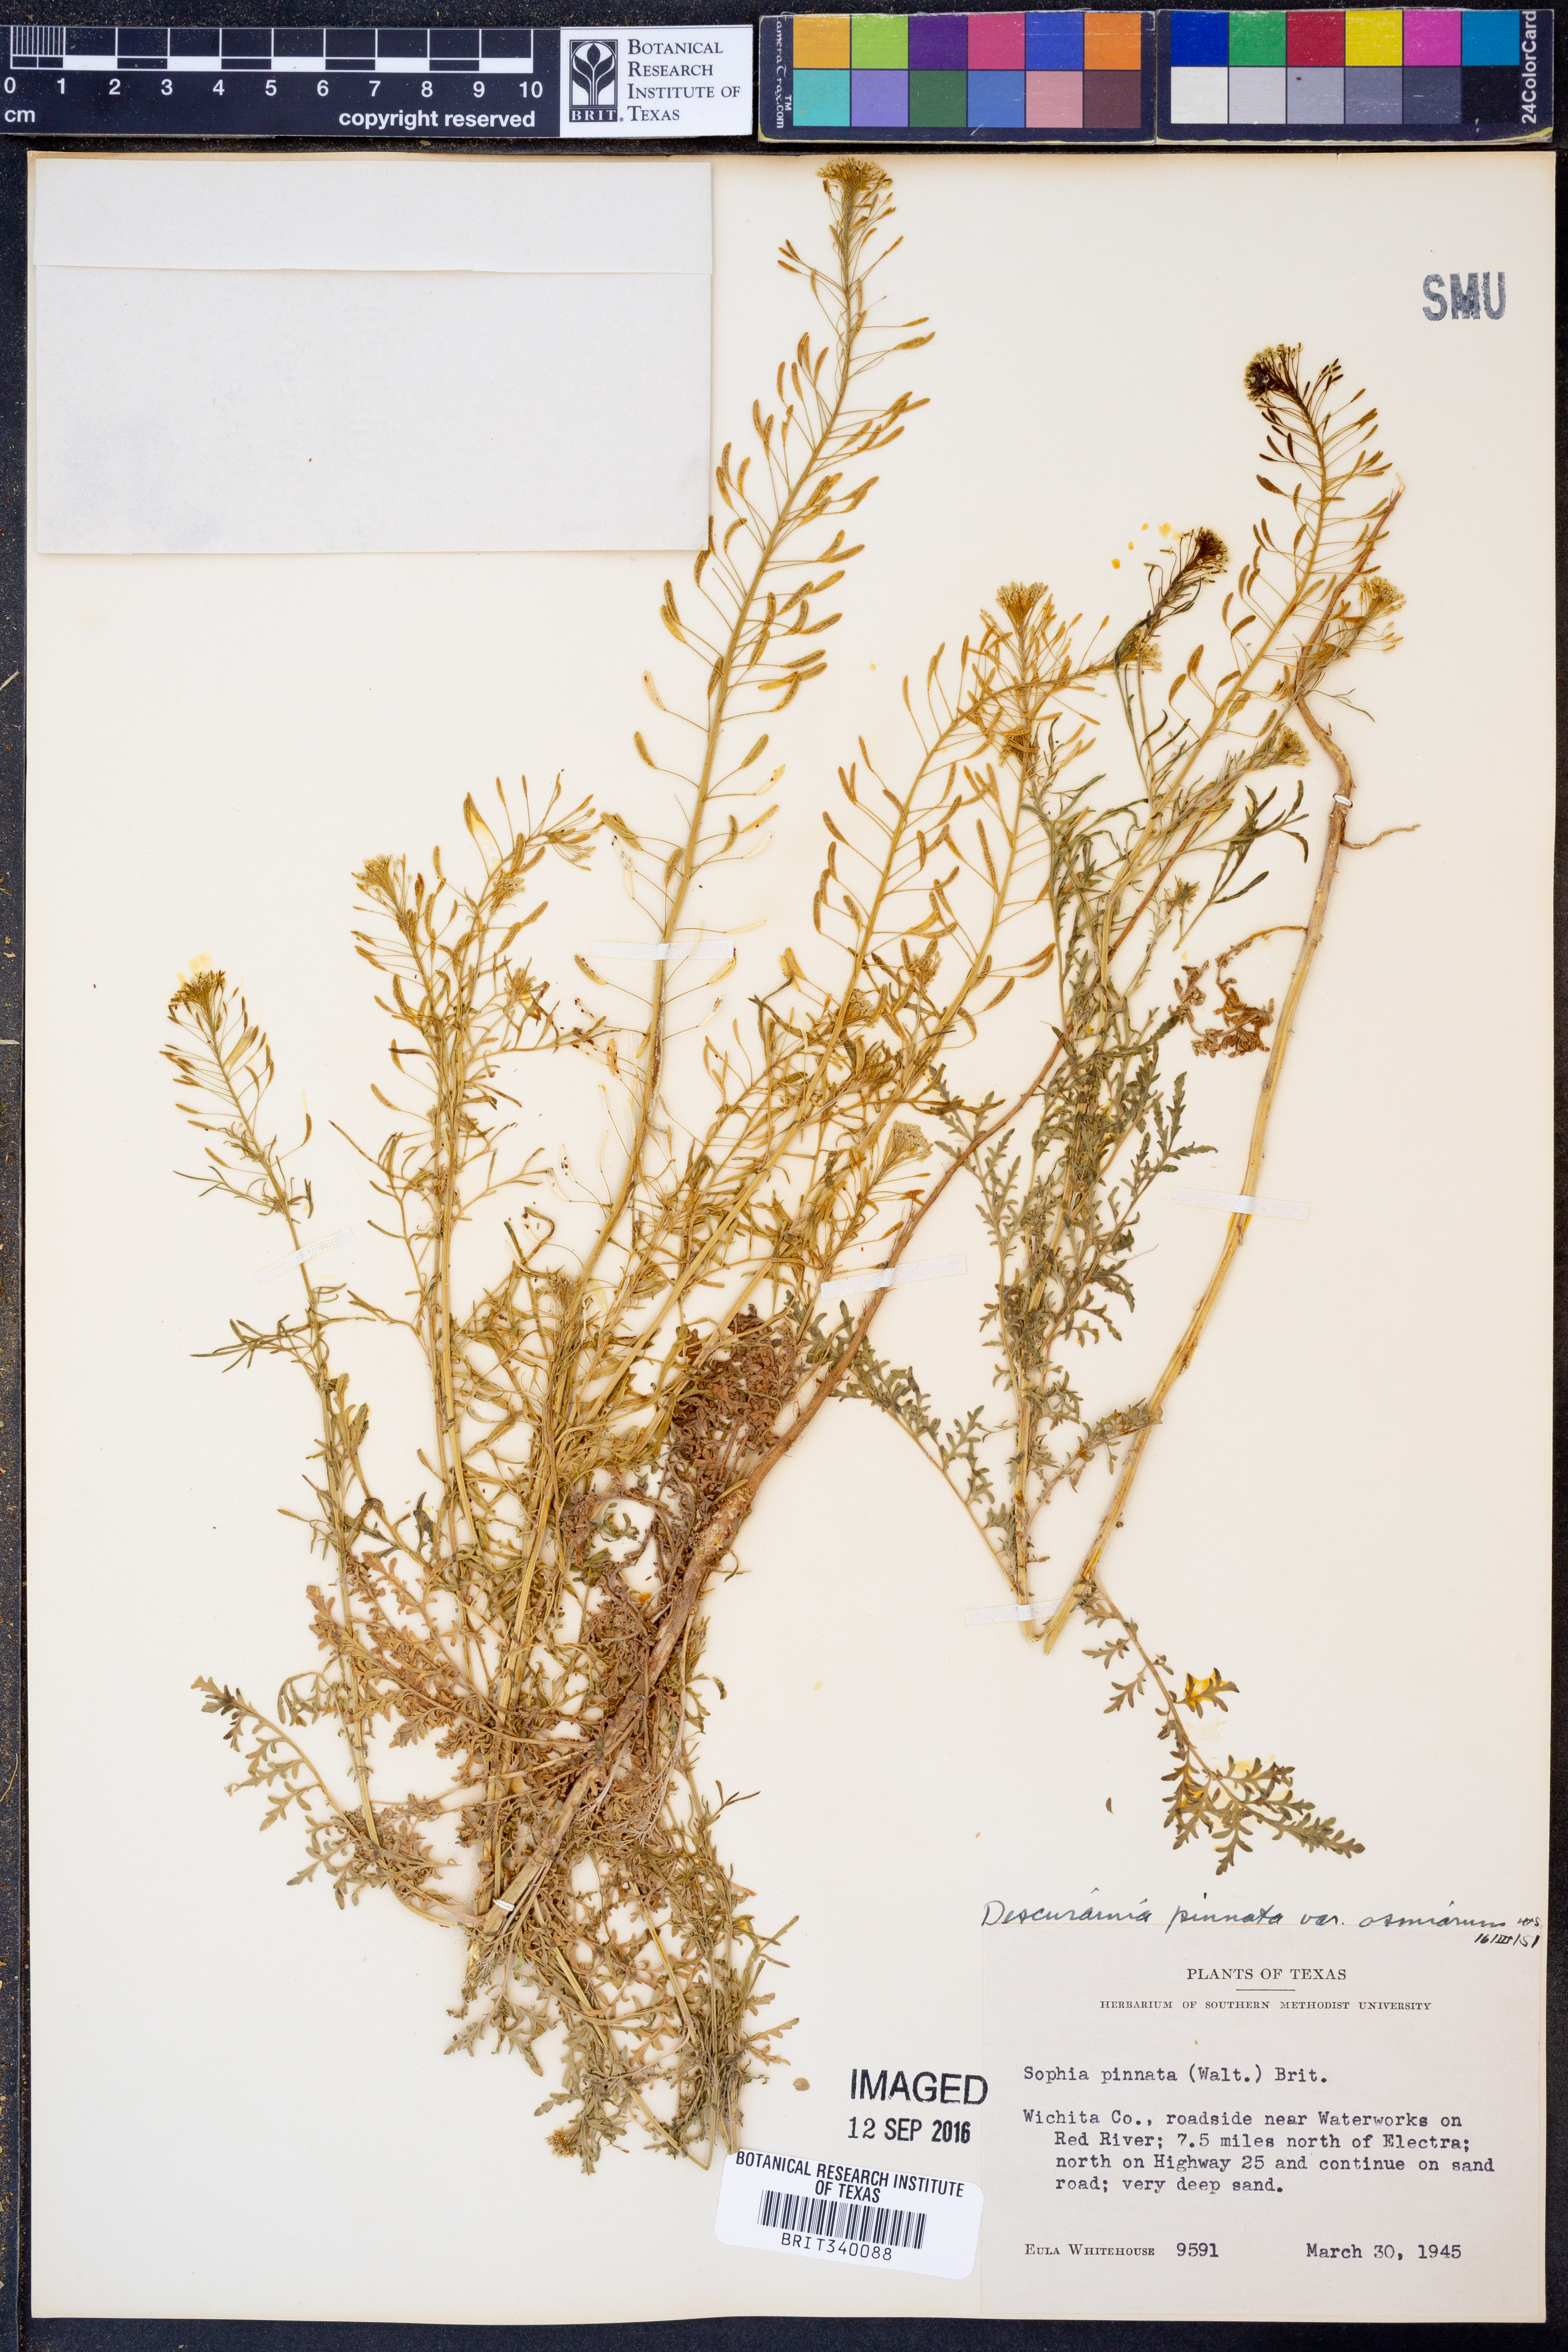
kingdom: Plantae
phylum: Tracheophyta
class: Magnoliopsida
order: Brassicales
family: Brassicaceae
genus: Descurainia
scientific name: Descurainia pinnata
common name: Western tansy mustard
